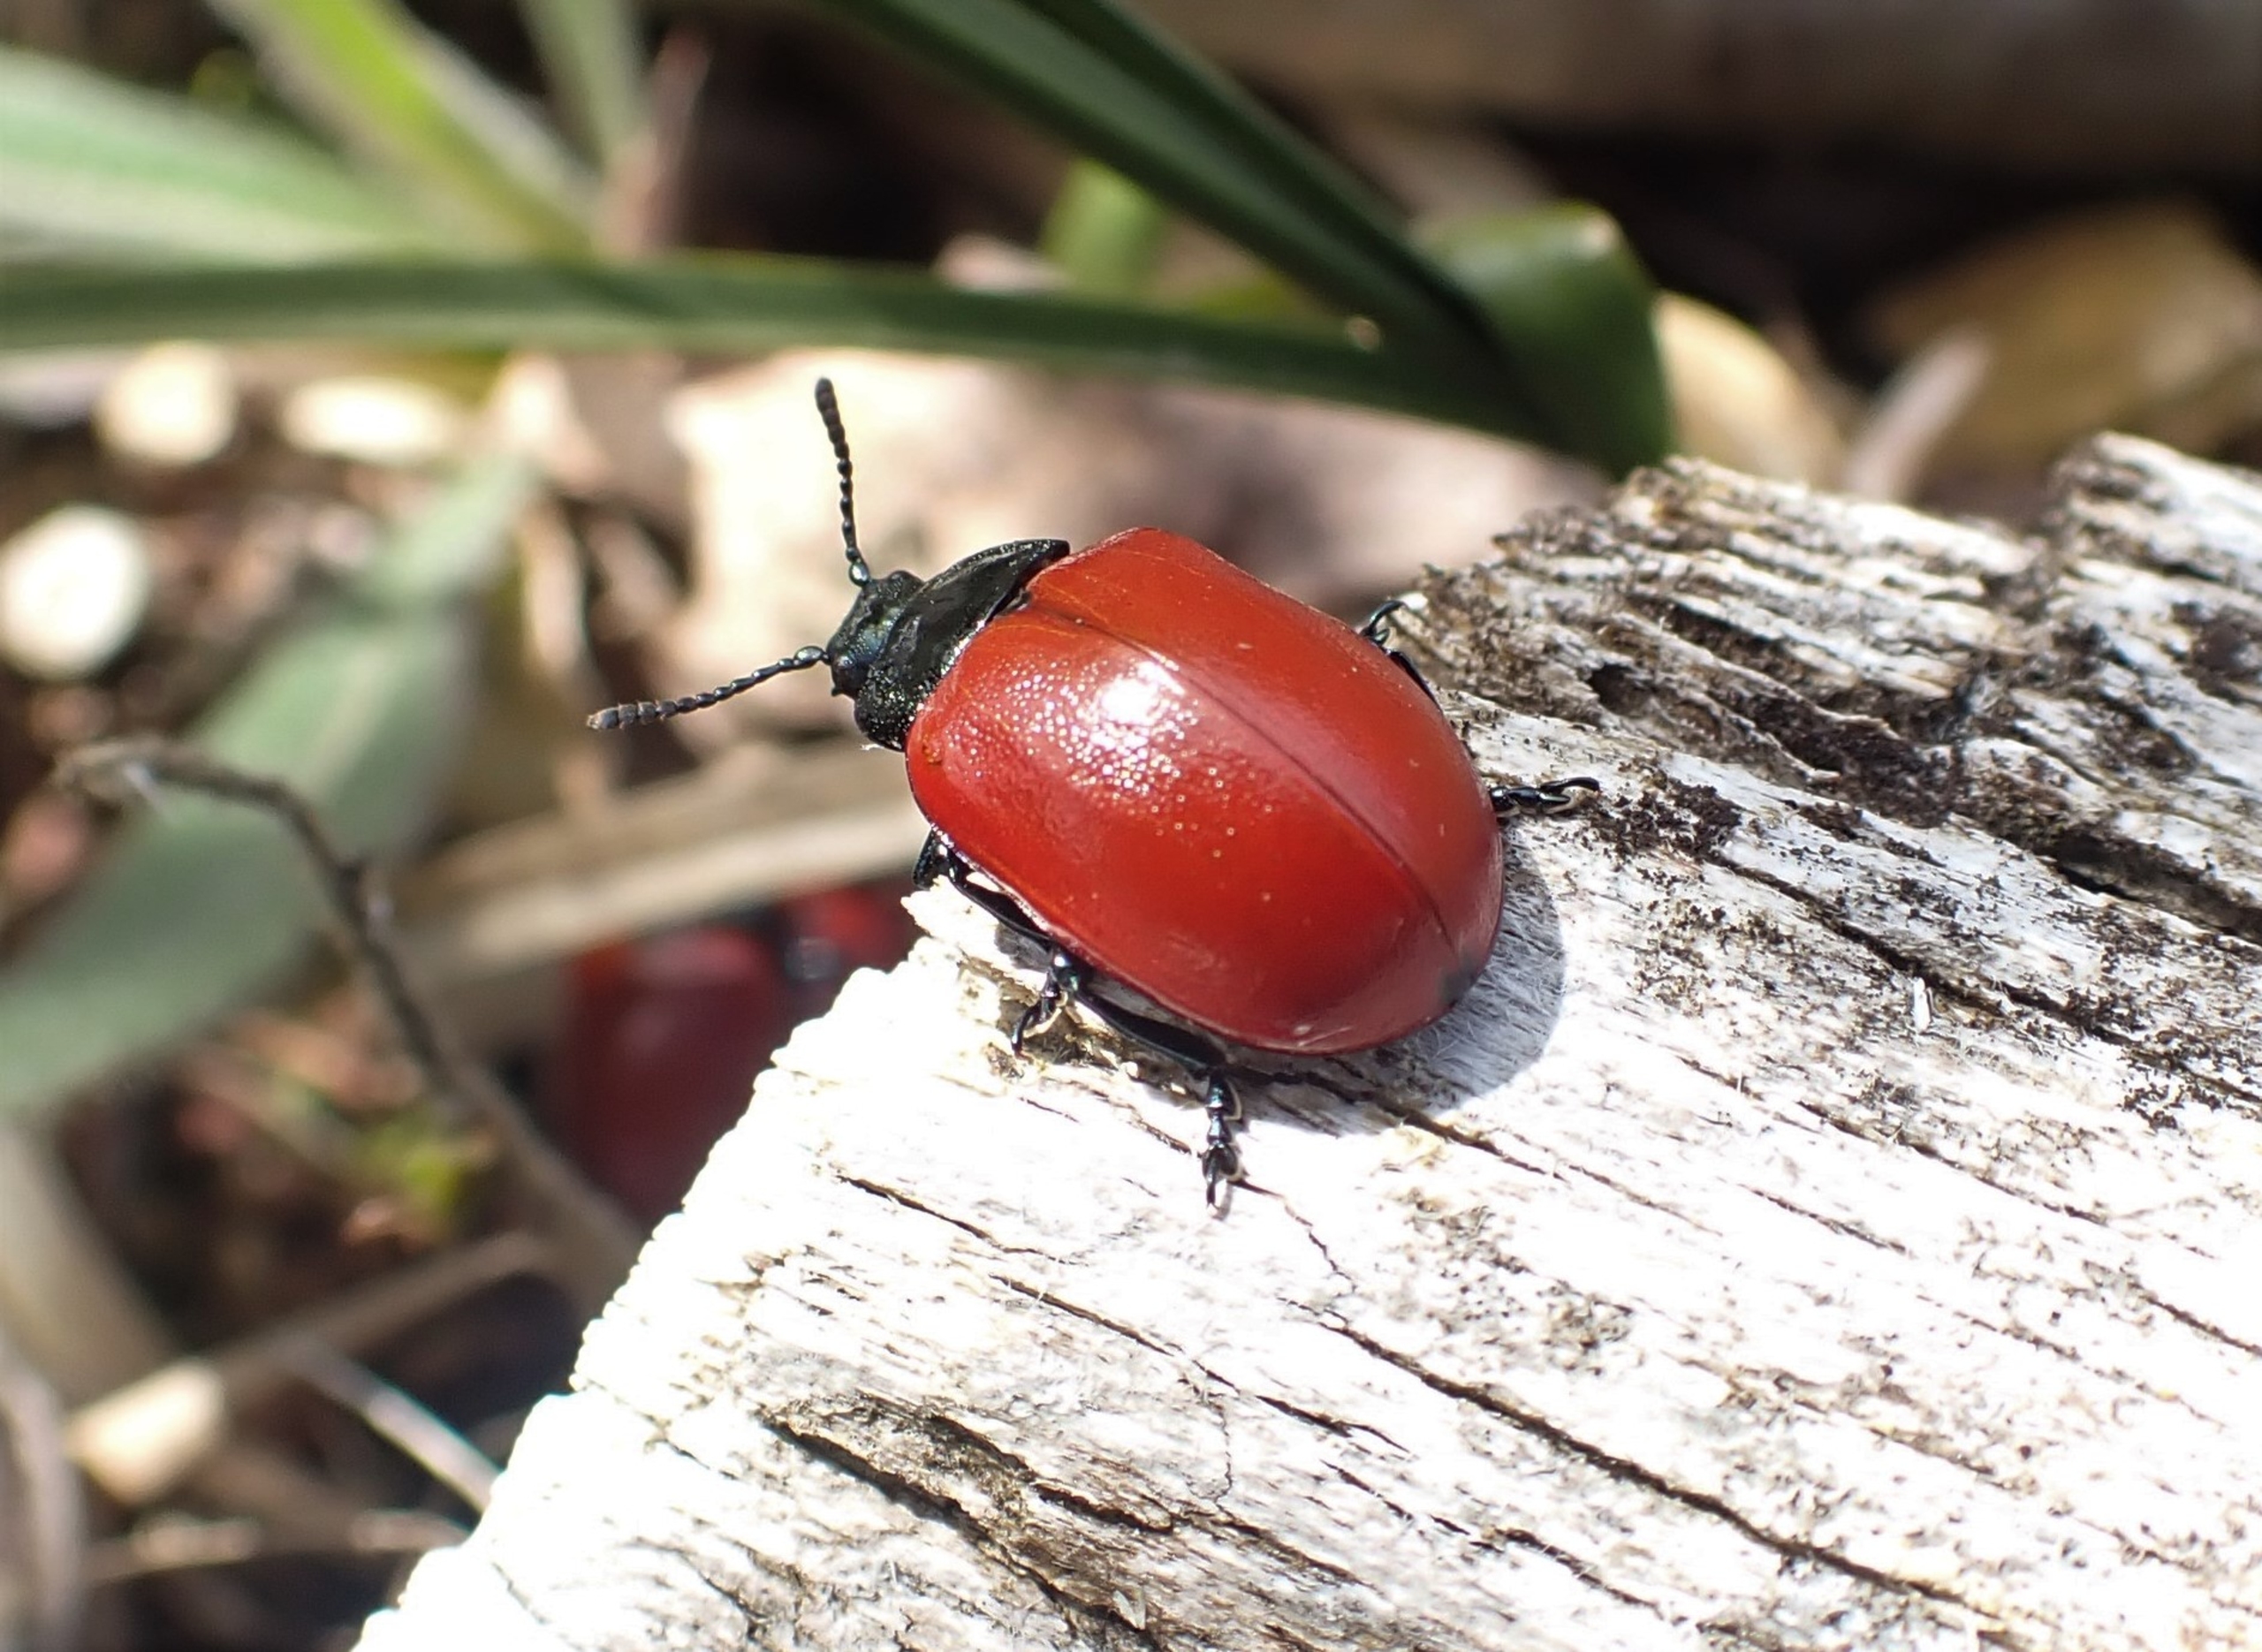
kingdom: Animalia
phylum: Arthropoda
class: Insecta
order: Coleoptera
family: Chrysomelidae
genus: Chrysomela
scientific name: Chrysomela populi
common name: Poppelbladbille
